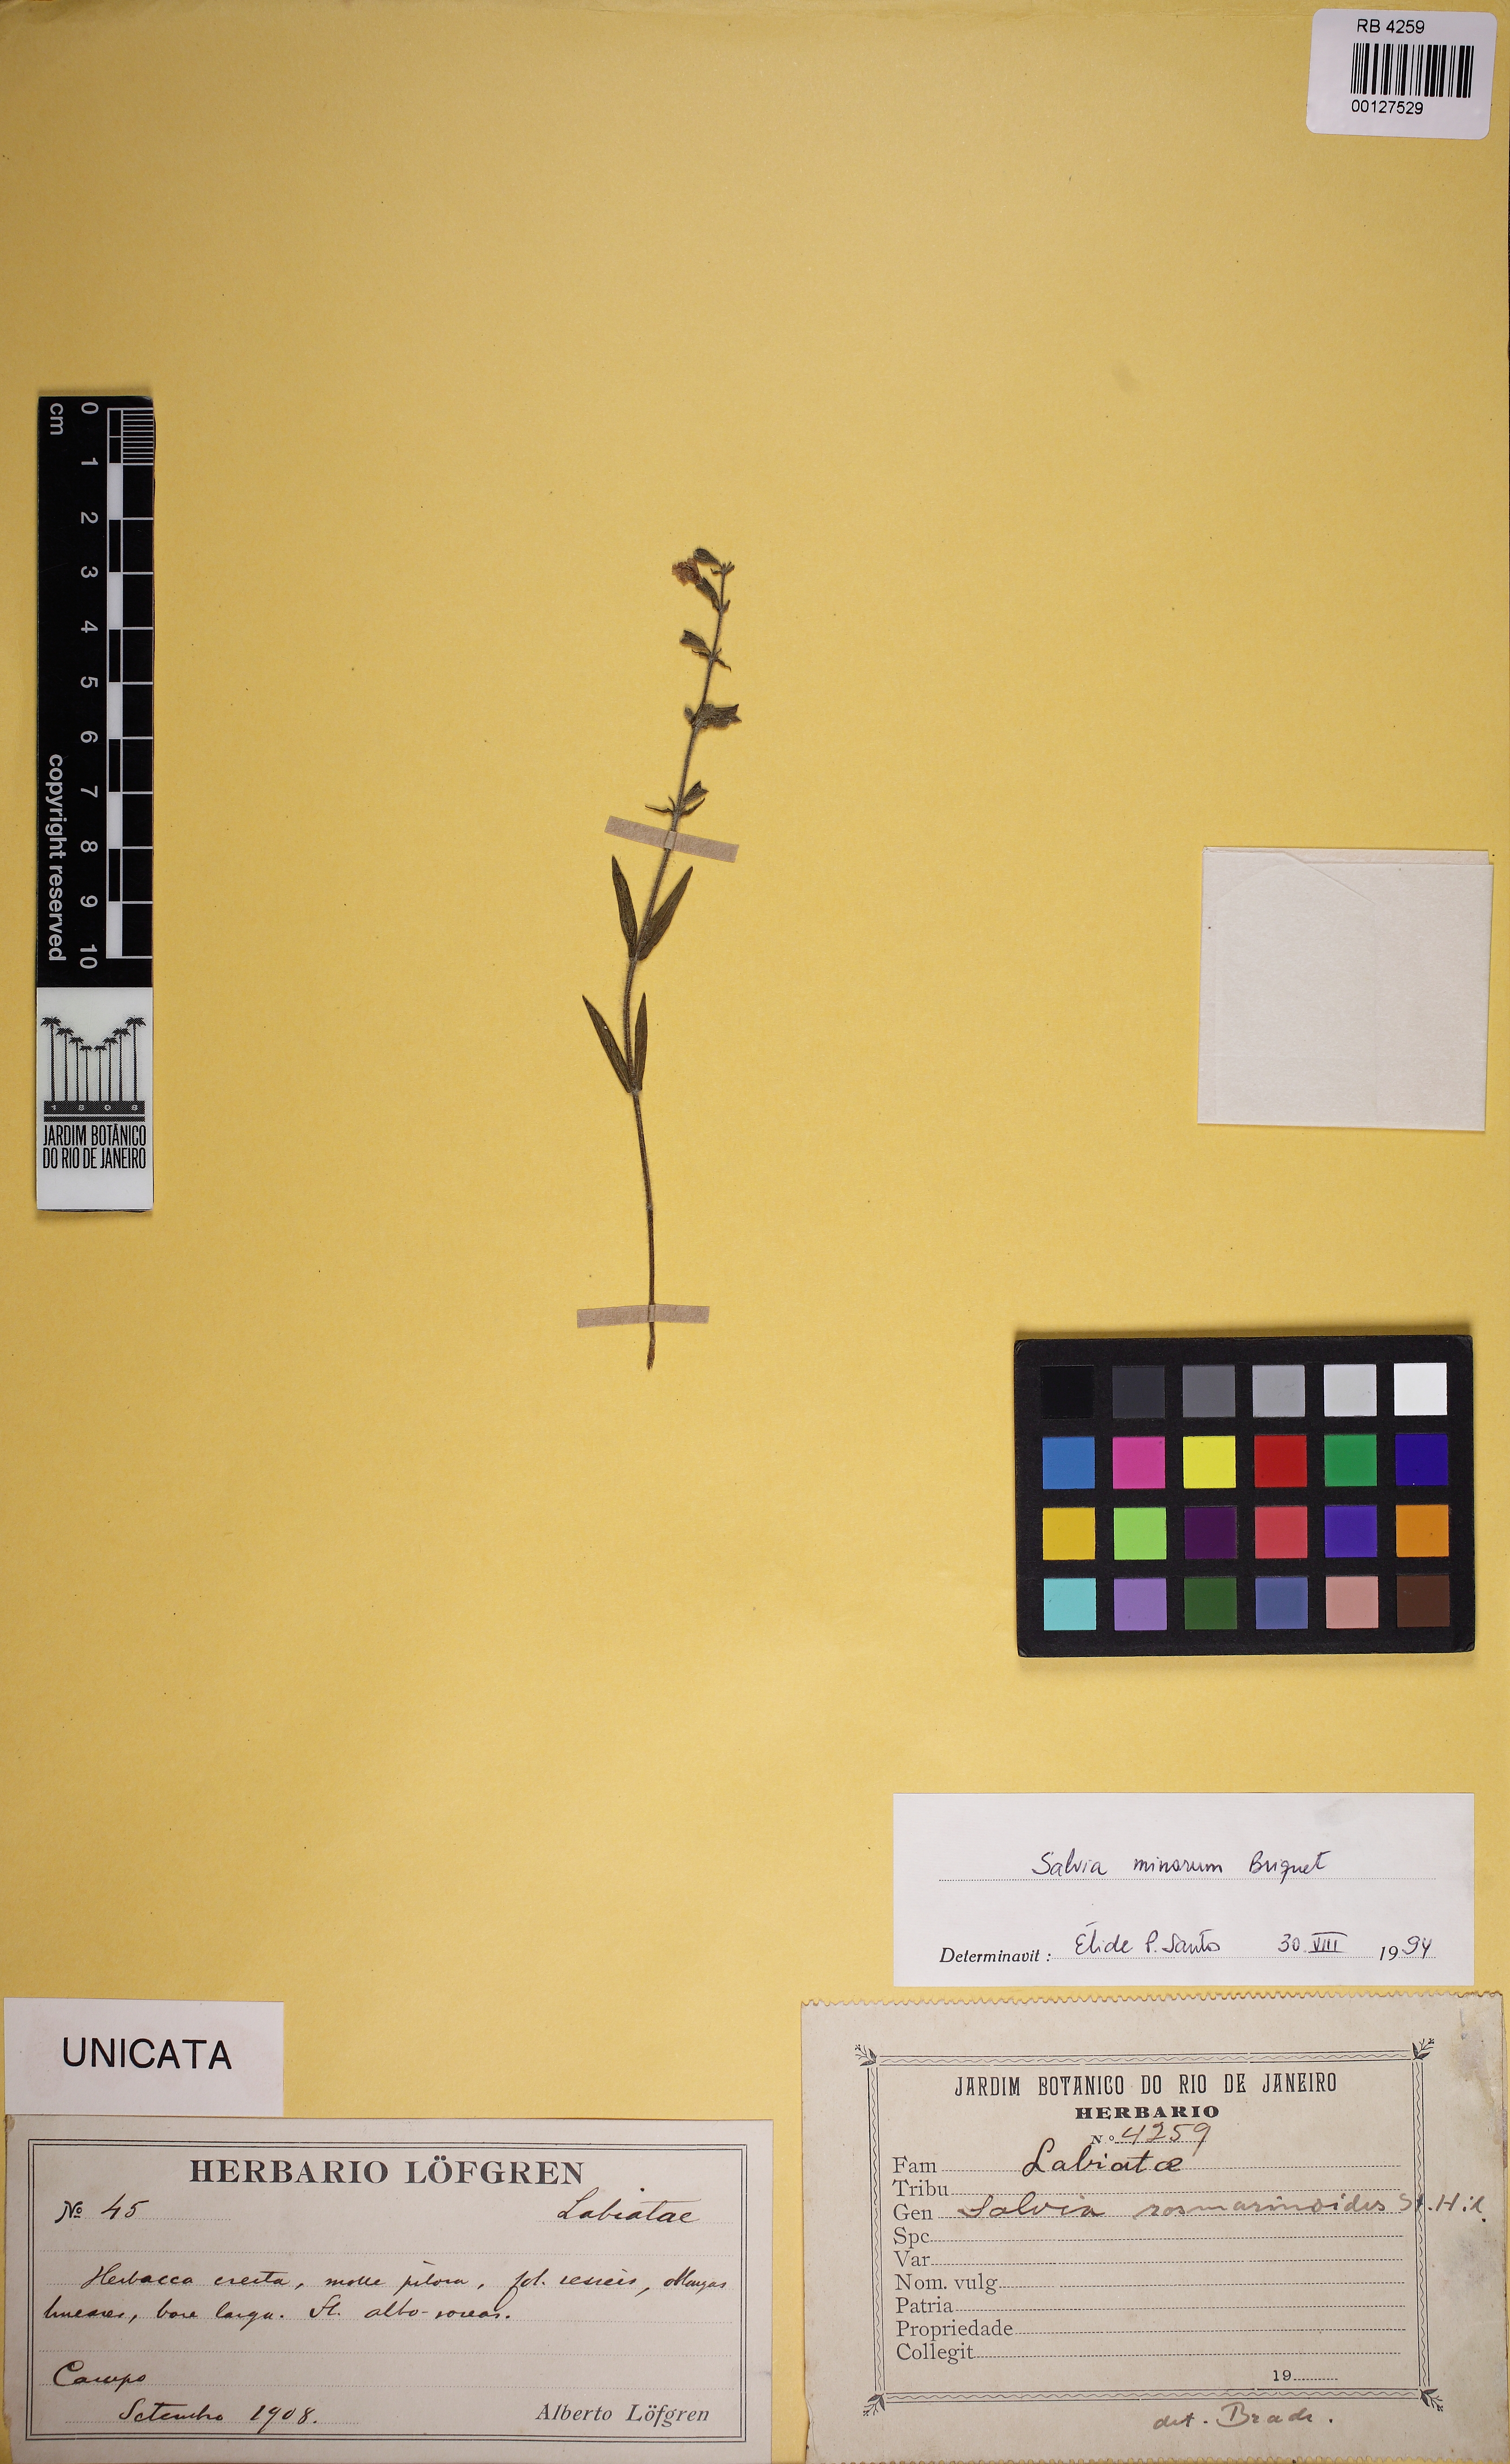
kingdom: Plantae
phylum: Tracheophyta
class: Magnoliopsida
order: Lamiales
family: Lamiaceae
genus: Salvia
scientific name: Salvia minarum
